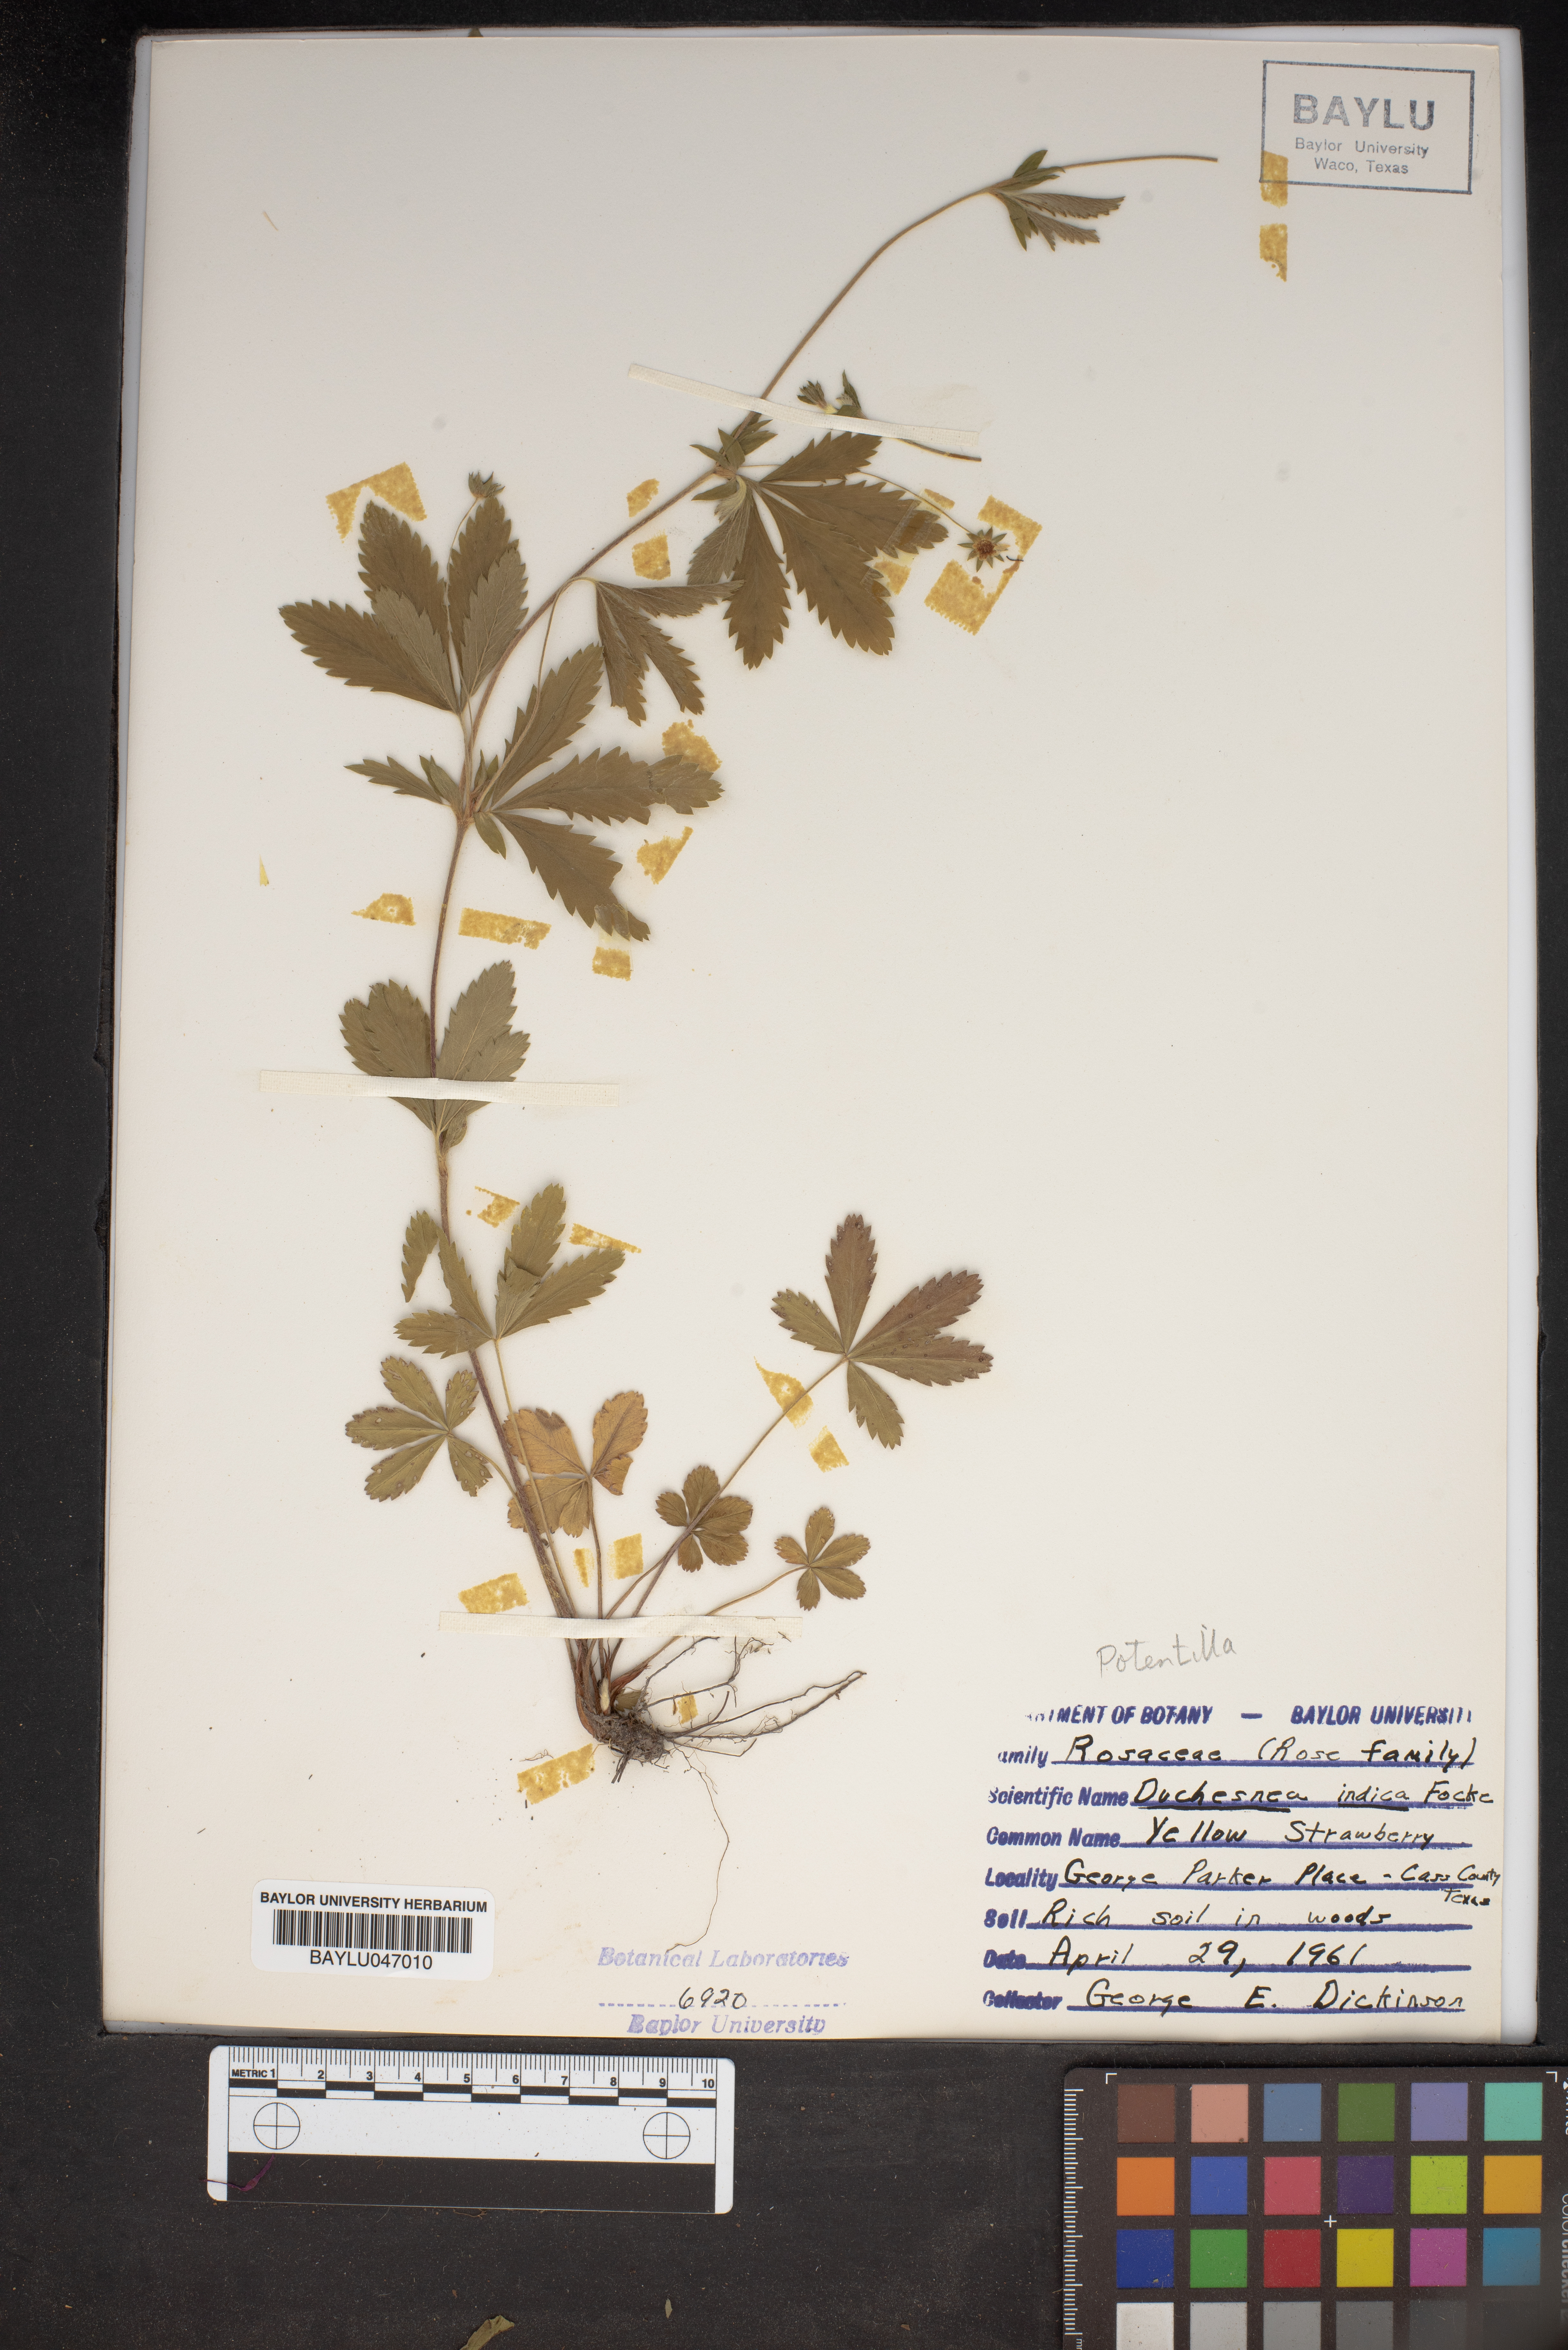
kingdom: Plantae
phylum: Tracheophyta
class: Magnoliopsida
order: Rosales
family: Rosaceae
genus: Potentilla
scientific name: Potentilla indica
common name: Yellow-flowered strawberry
